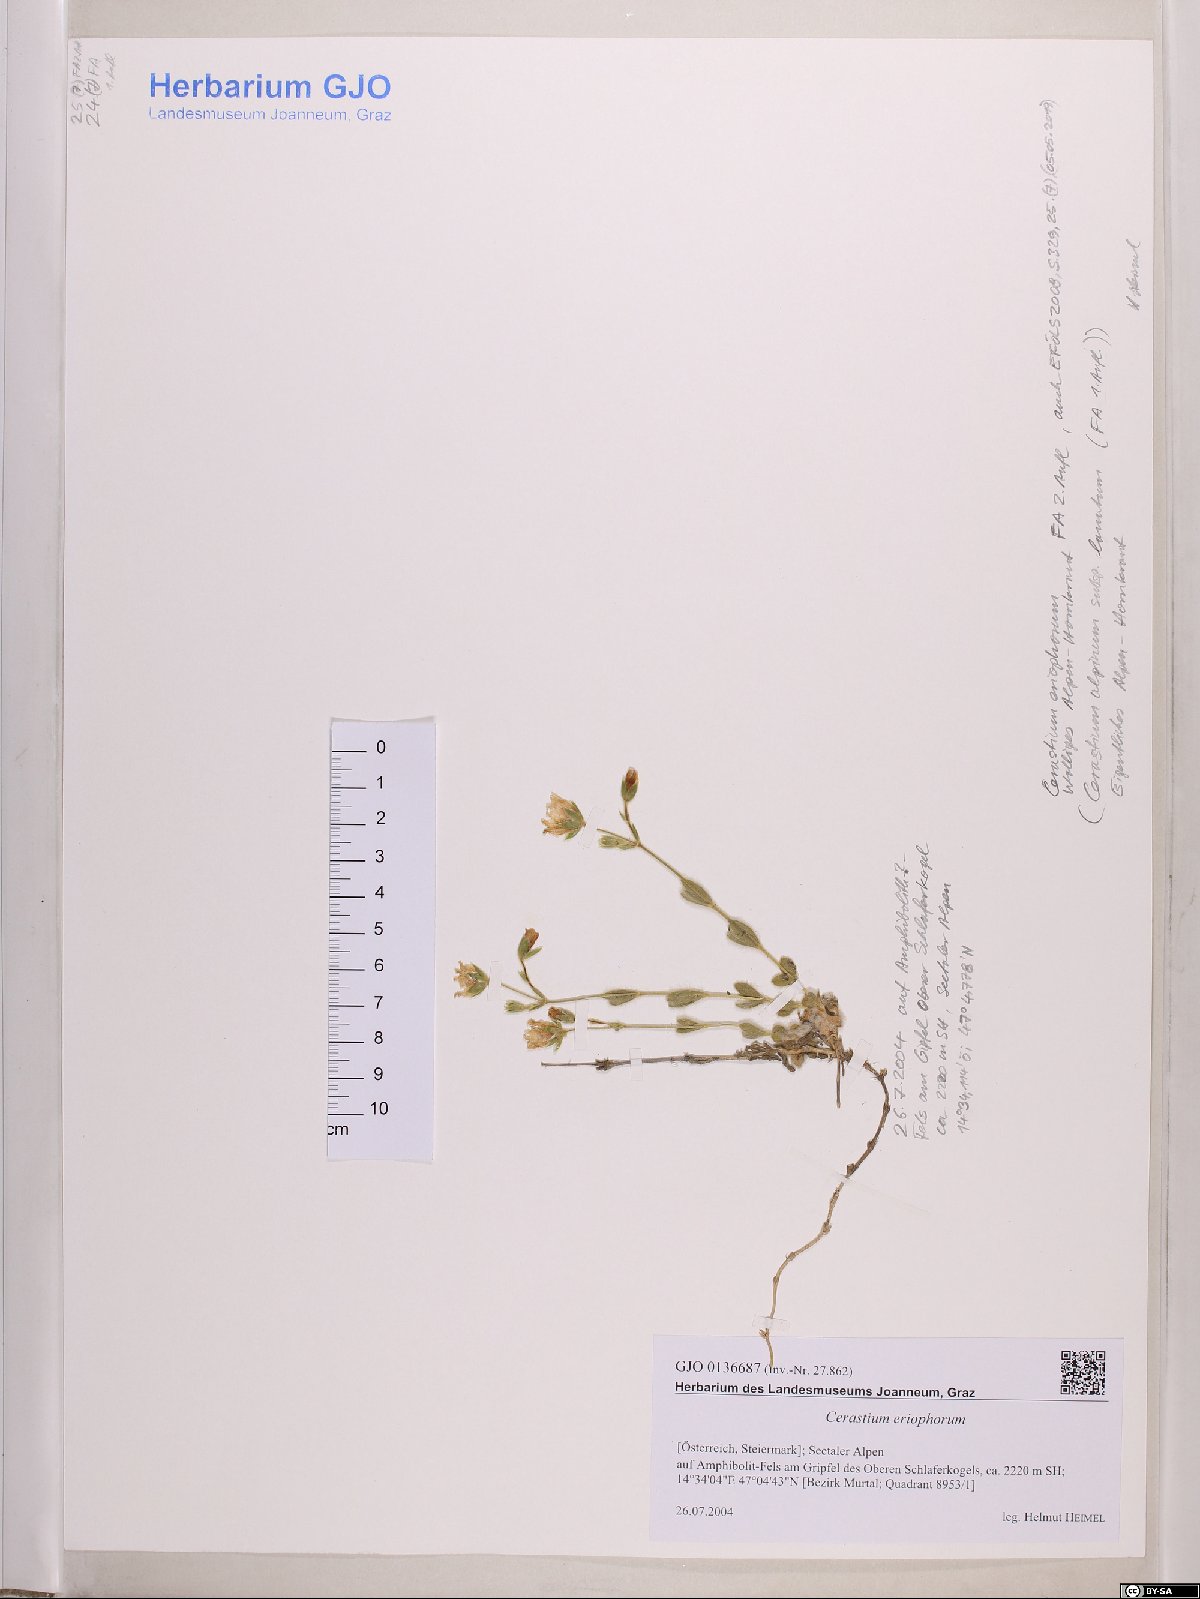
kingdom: Plantae
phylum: Tracheophyta
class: Magnoliopsida
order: Caryophyllales
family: Caryophyllaceae
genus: Cerastium
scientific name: Cerastium eriophorum
